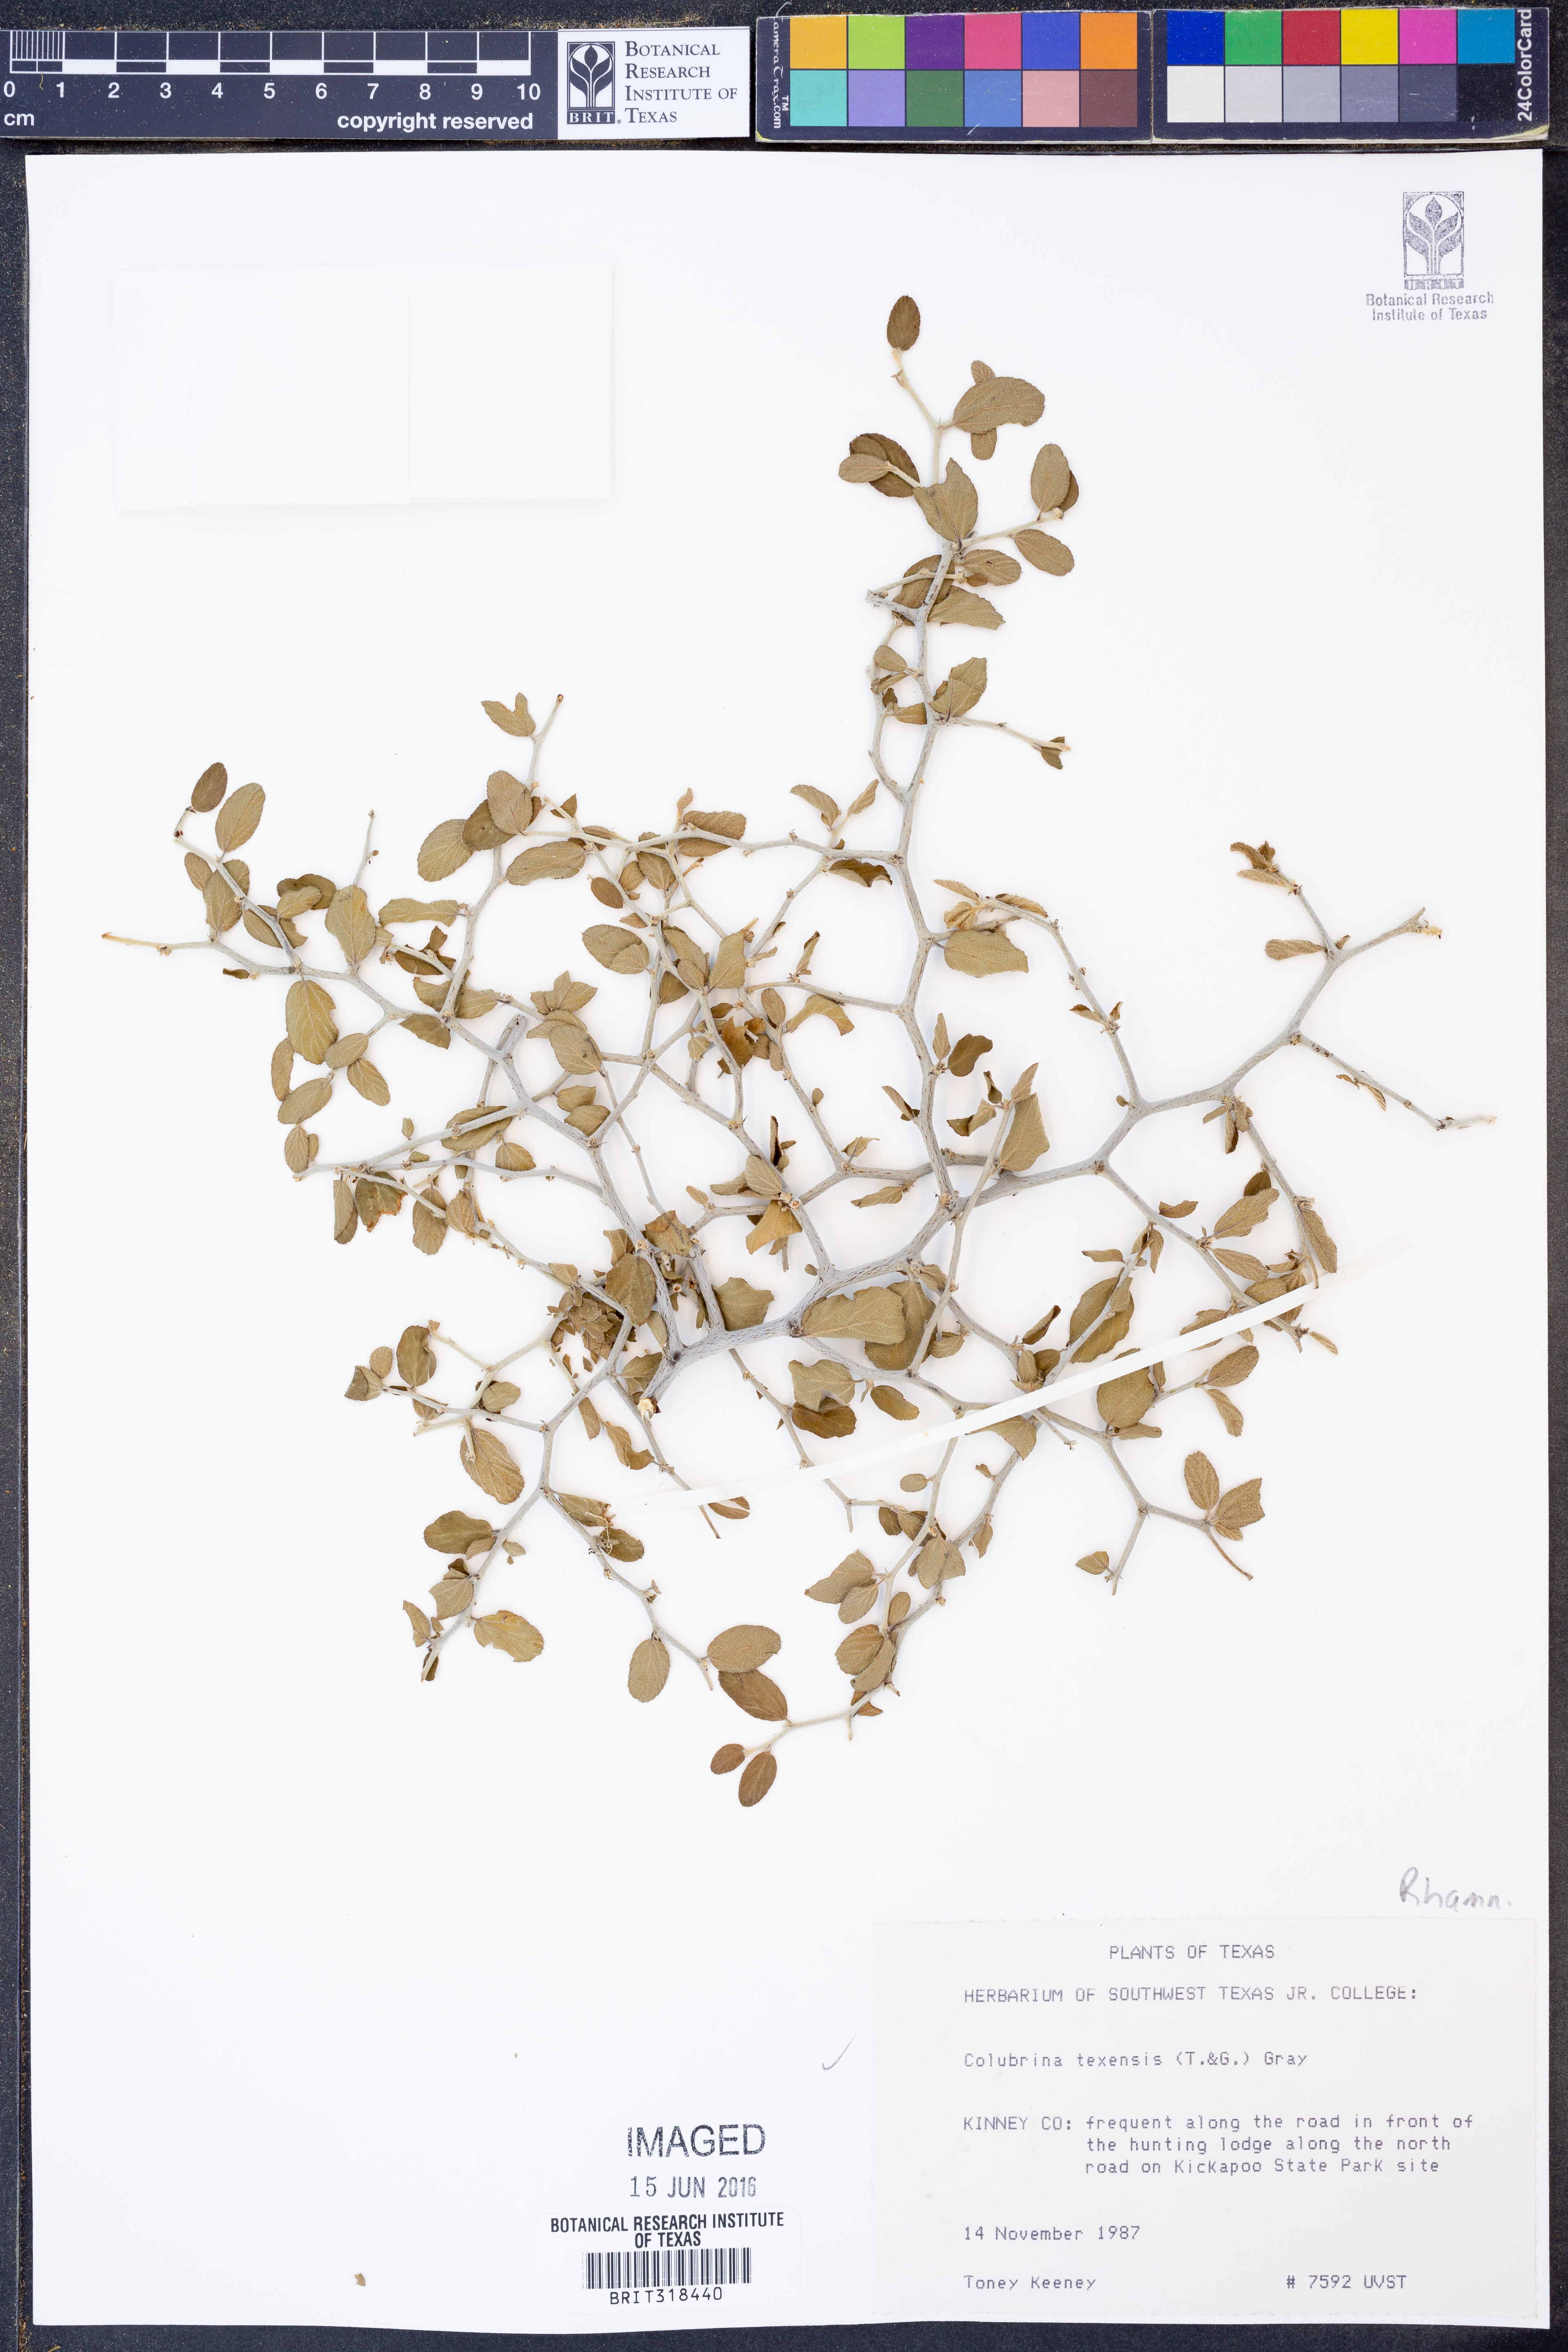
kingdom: Plantae
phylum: Tracheophyta
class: Magnoliopsida
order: Rosales
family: Rhamnaceae
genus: Colubrina
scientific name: Colubrina texensis
